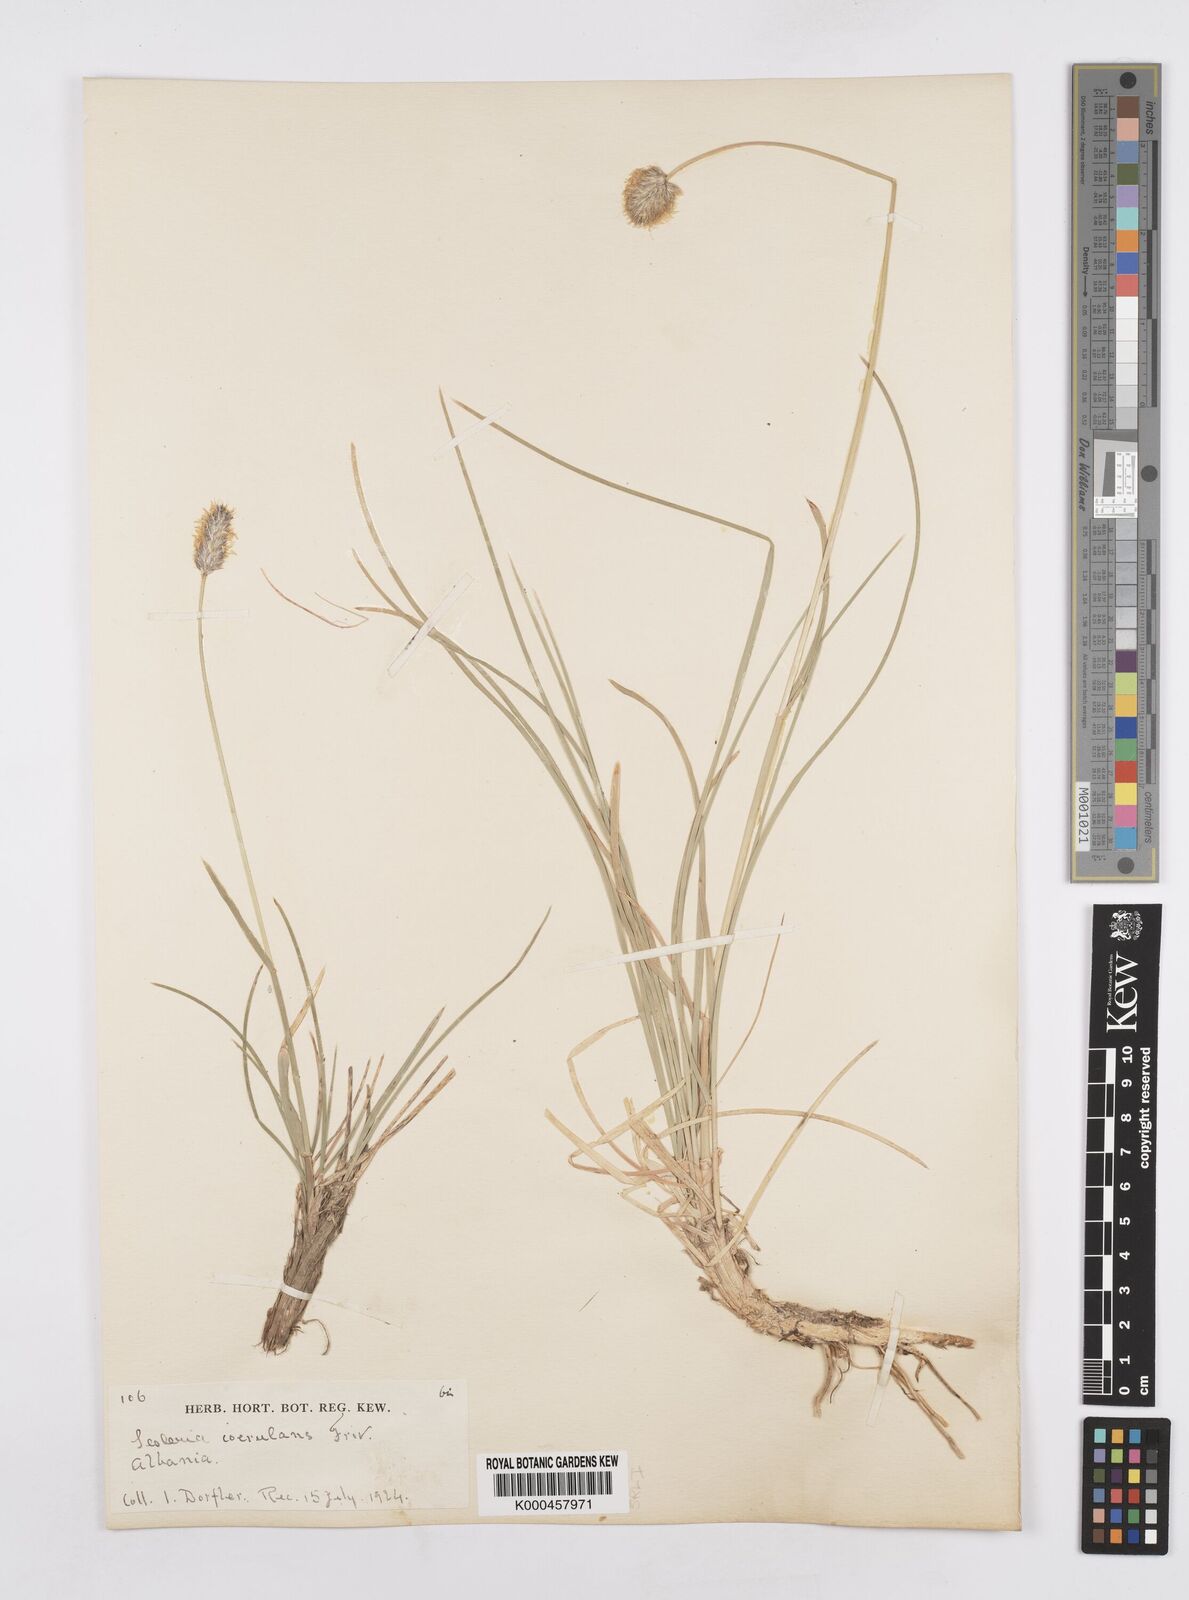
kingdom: Plantae
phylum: Tracheophyta
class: Liliopsida
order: Poales
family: Poaceae
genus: Sesleria
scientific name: Sesleria coerulans
